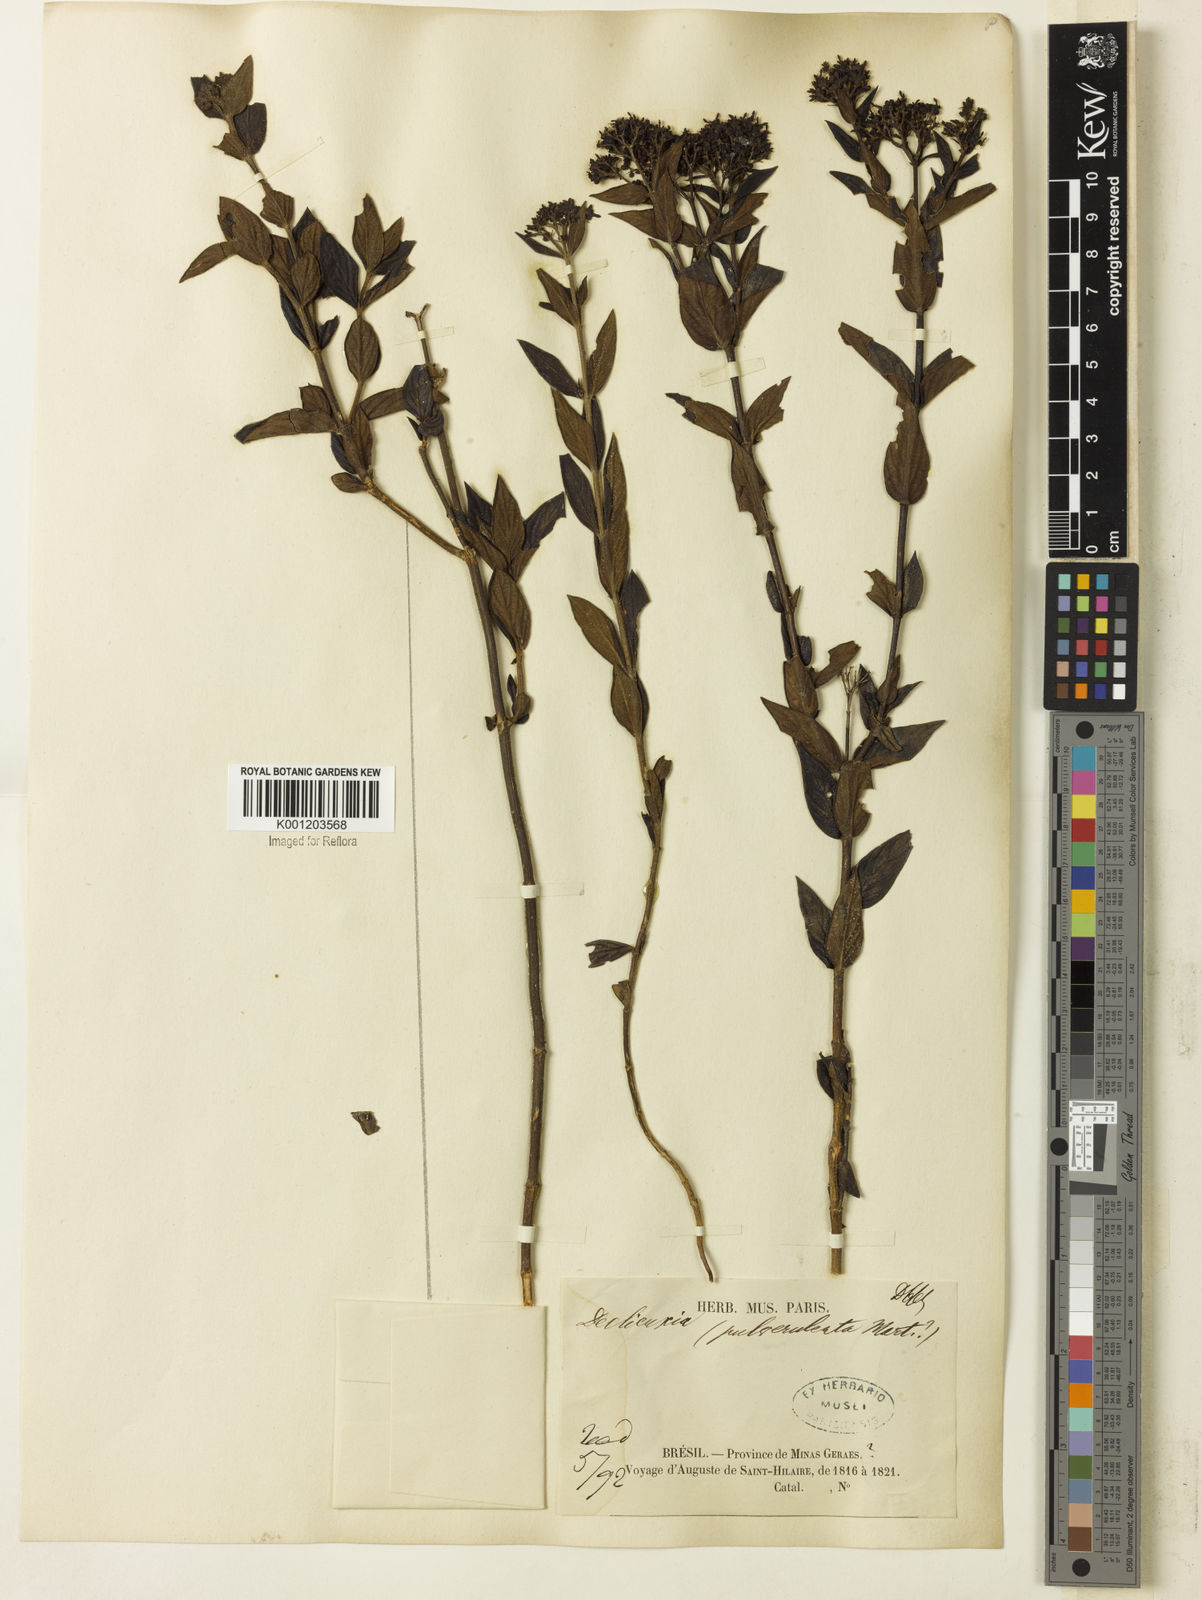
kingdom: Plantae
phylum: Tracheophyta
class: Magnoliopsida
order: Gentianales
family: Rubiaceae
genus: Declieuxia
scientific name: Declieuxia fruticosa
